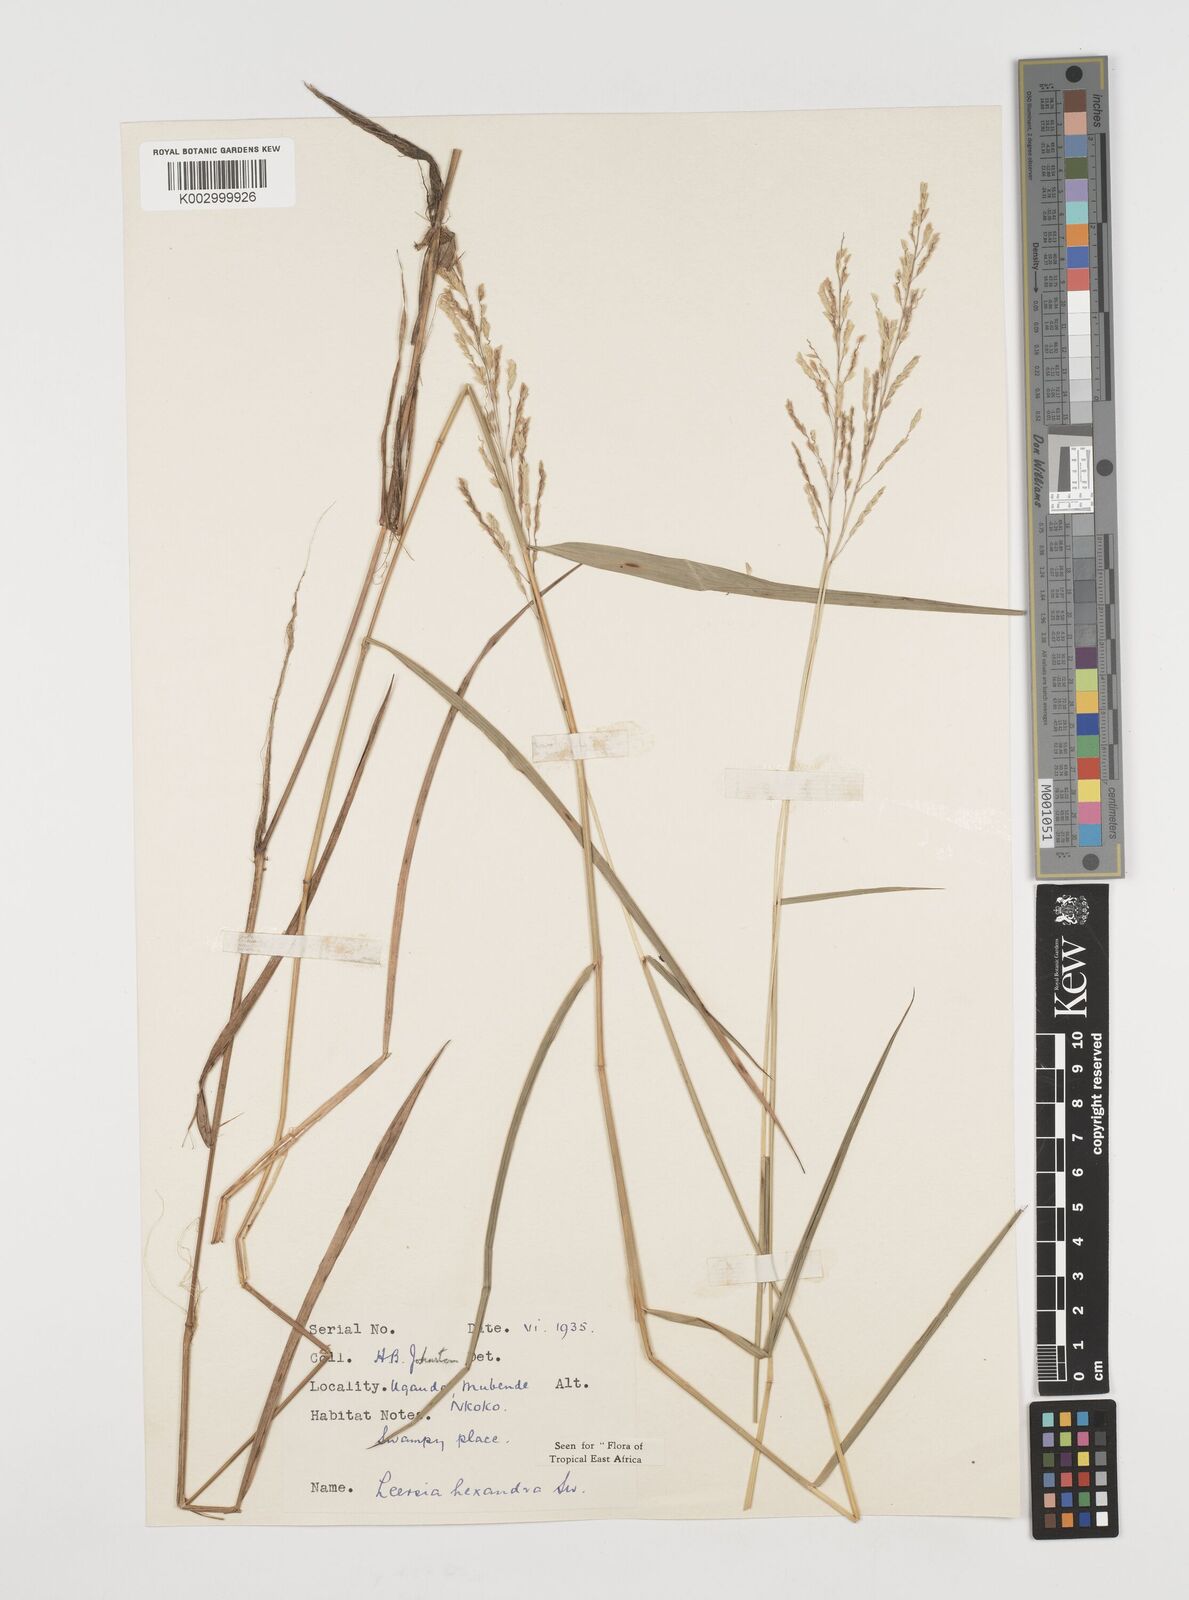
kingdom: Plantae
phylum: Tracheophyta
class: Liliopsida
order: Poales
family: Poaceae
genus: Leersia
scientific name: Leersia hexandra
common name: Southern cut grass
